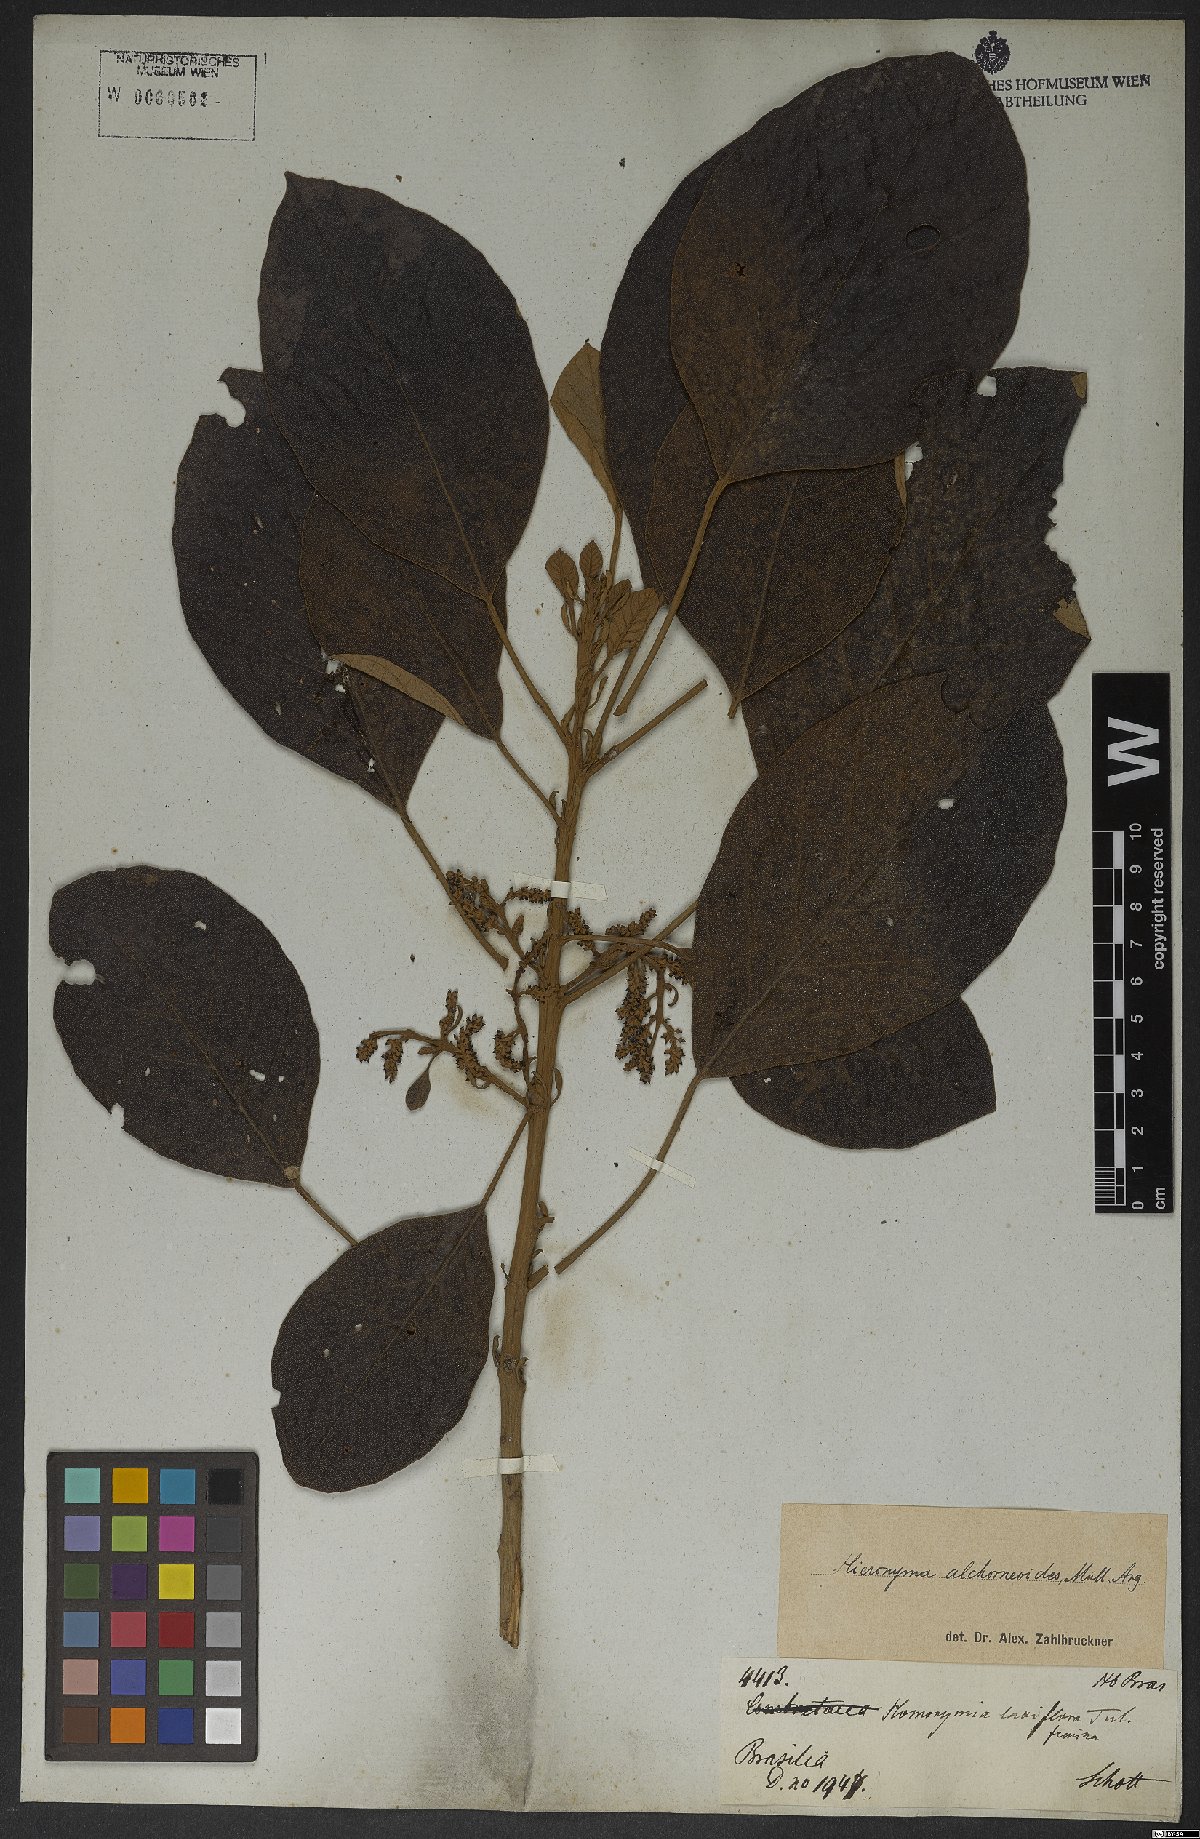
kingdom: Plantae
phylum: Tracheophyta
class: Magnoliopsida
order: Malpighiales
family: Phyllanthaceae
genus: Hieronyma
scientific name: Hieronyma alchorneoides
